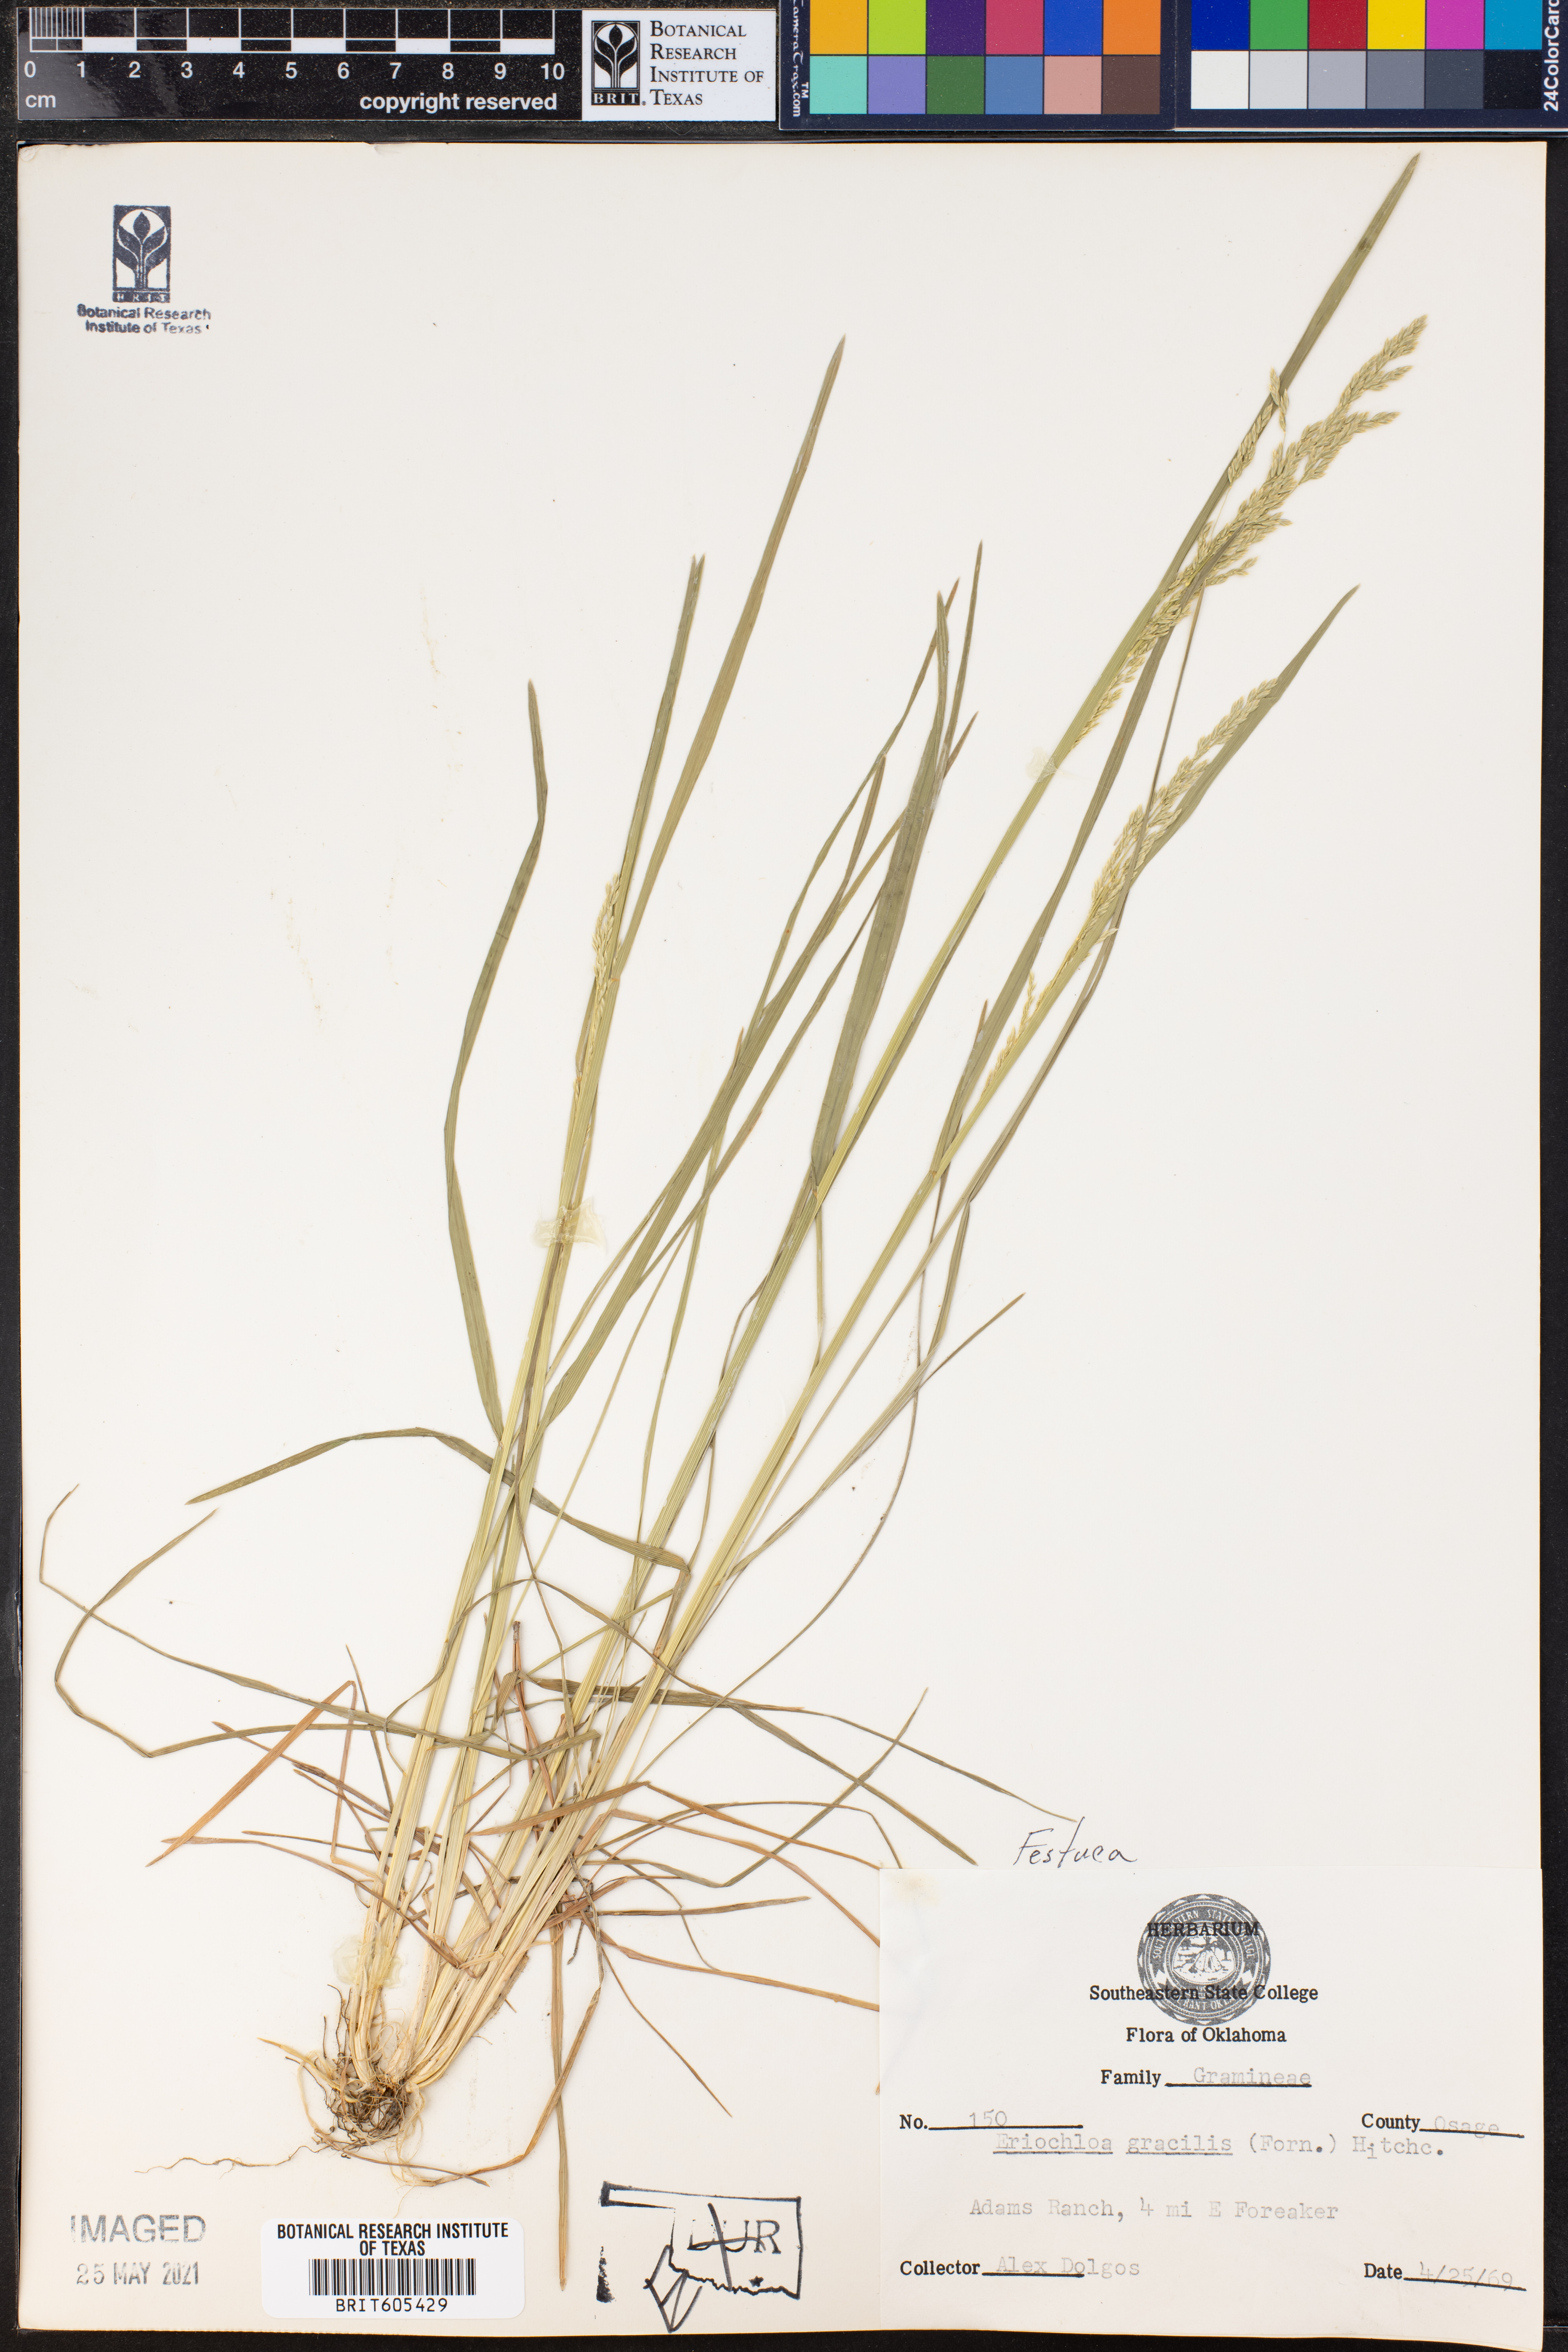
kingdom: Plantae
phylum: Tracheophyta
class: Liliopsida
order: Poales
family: Poaceae
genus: Eriochloa
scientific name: Eriochloa acuminata
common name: Southwestern cup grass
